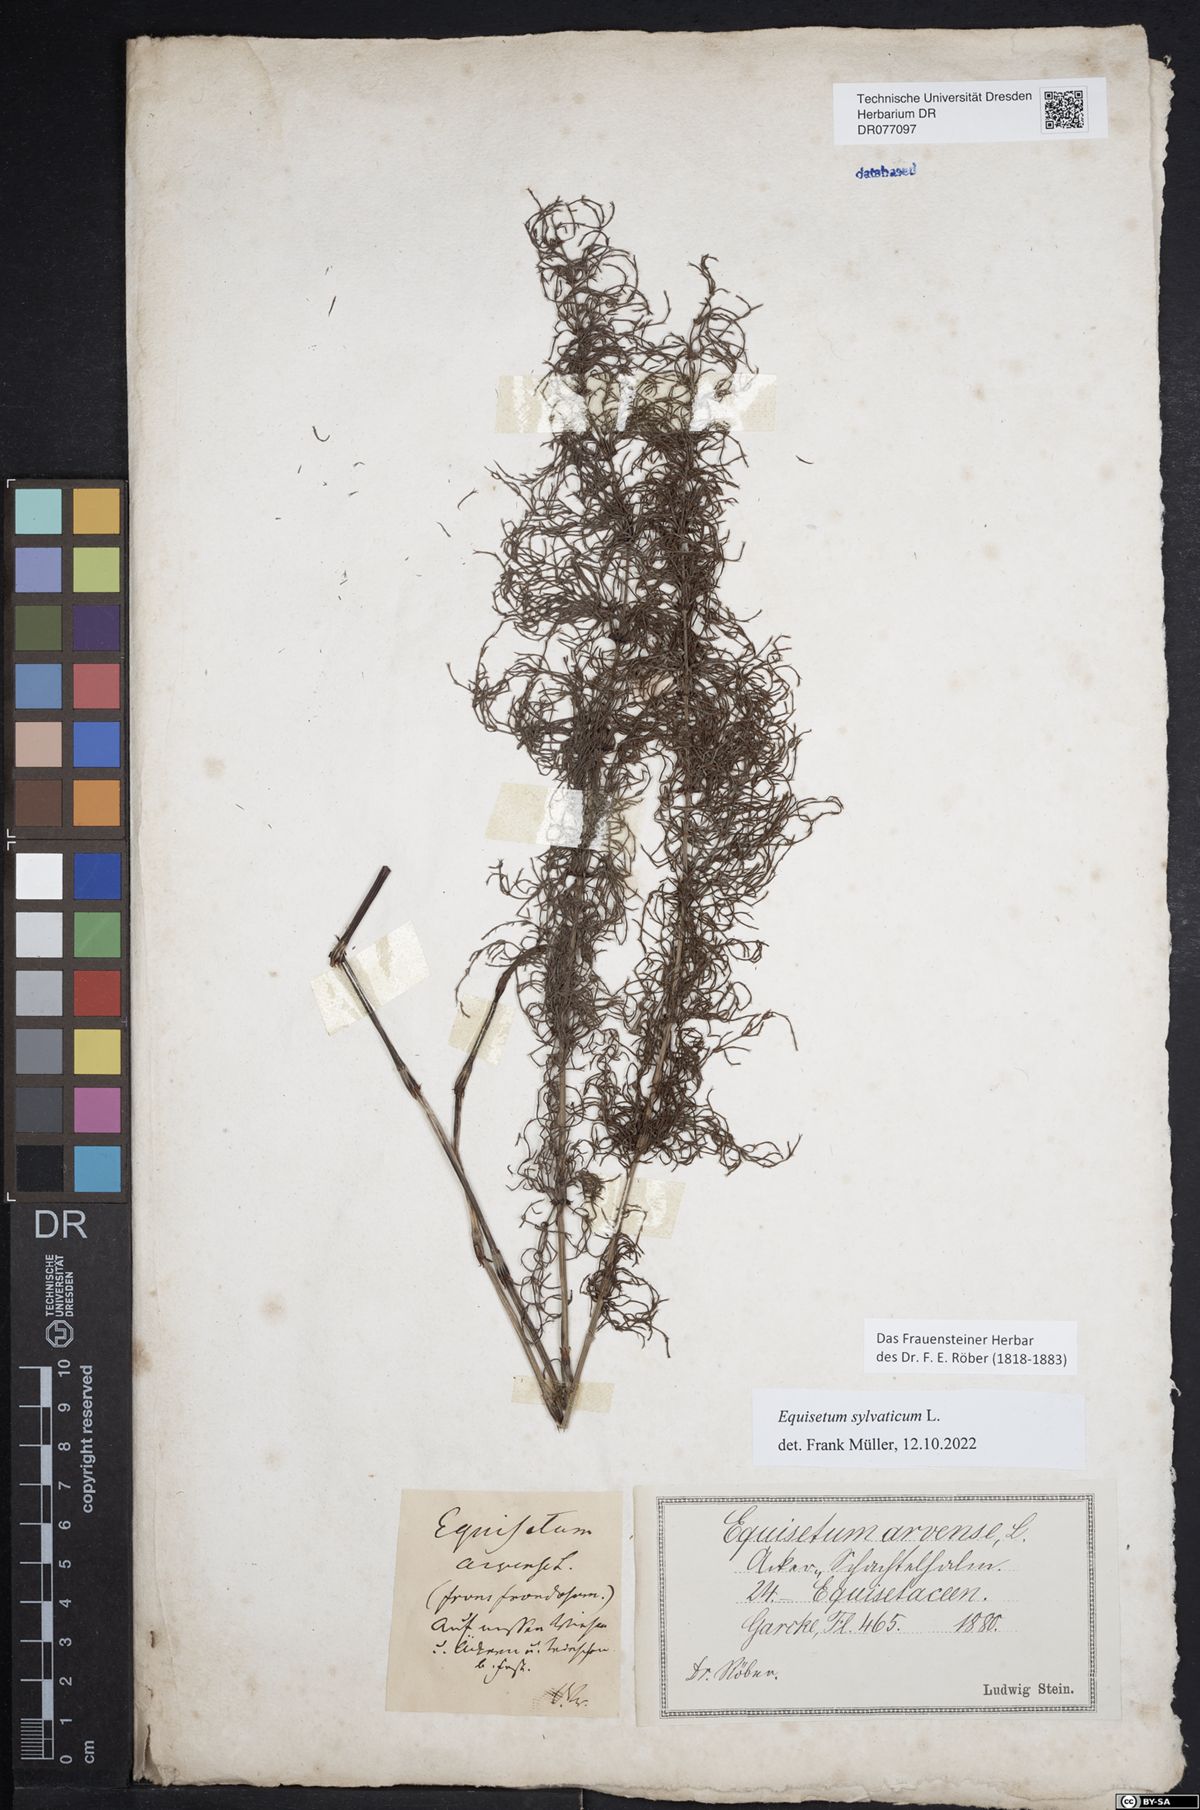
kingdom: Plantae
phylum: Tracheophyta
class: Polypodiopsida
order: Equisetales
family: Equisetaceae
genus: Equisetum
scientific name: Equisetum sylvaticum
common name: Wood horsetail
